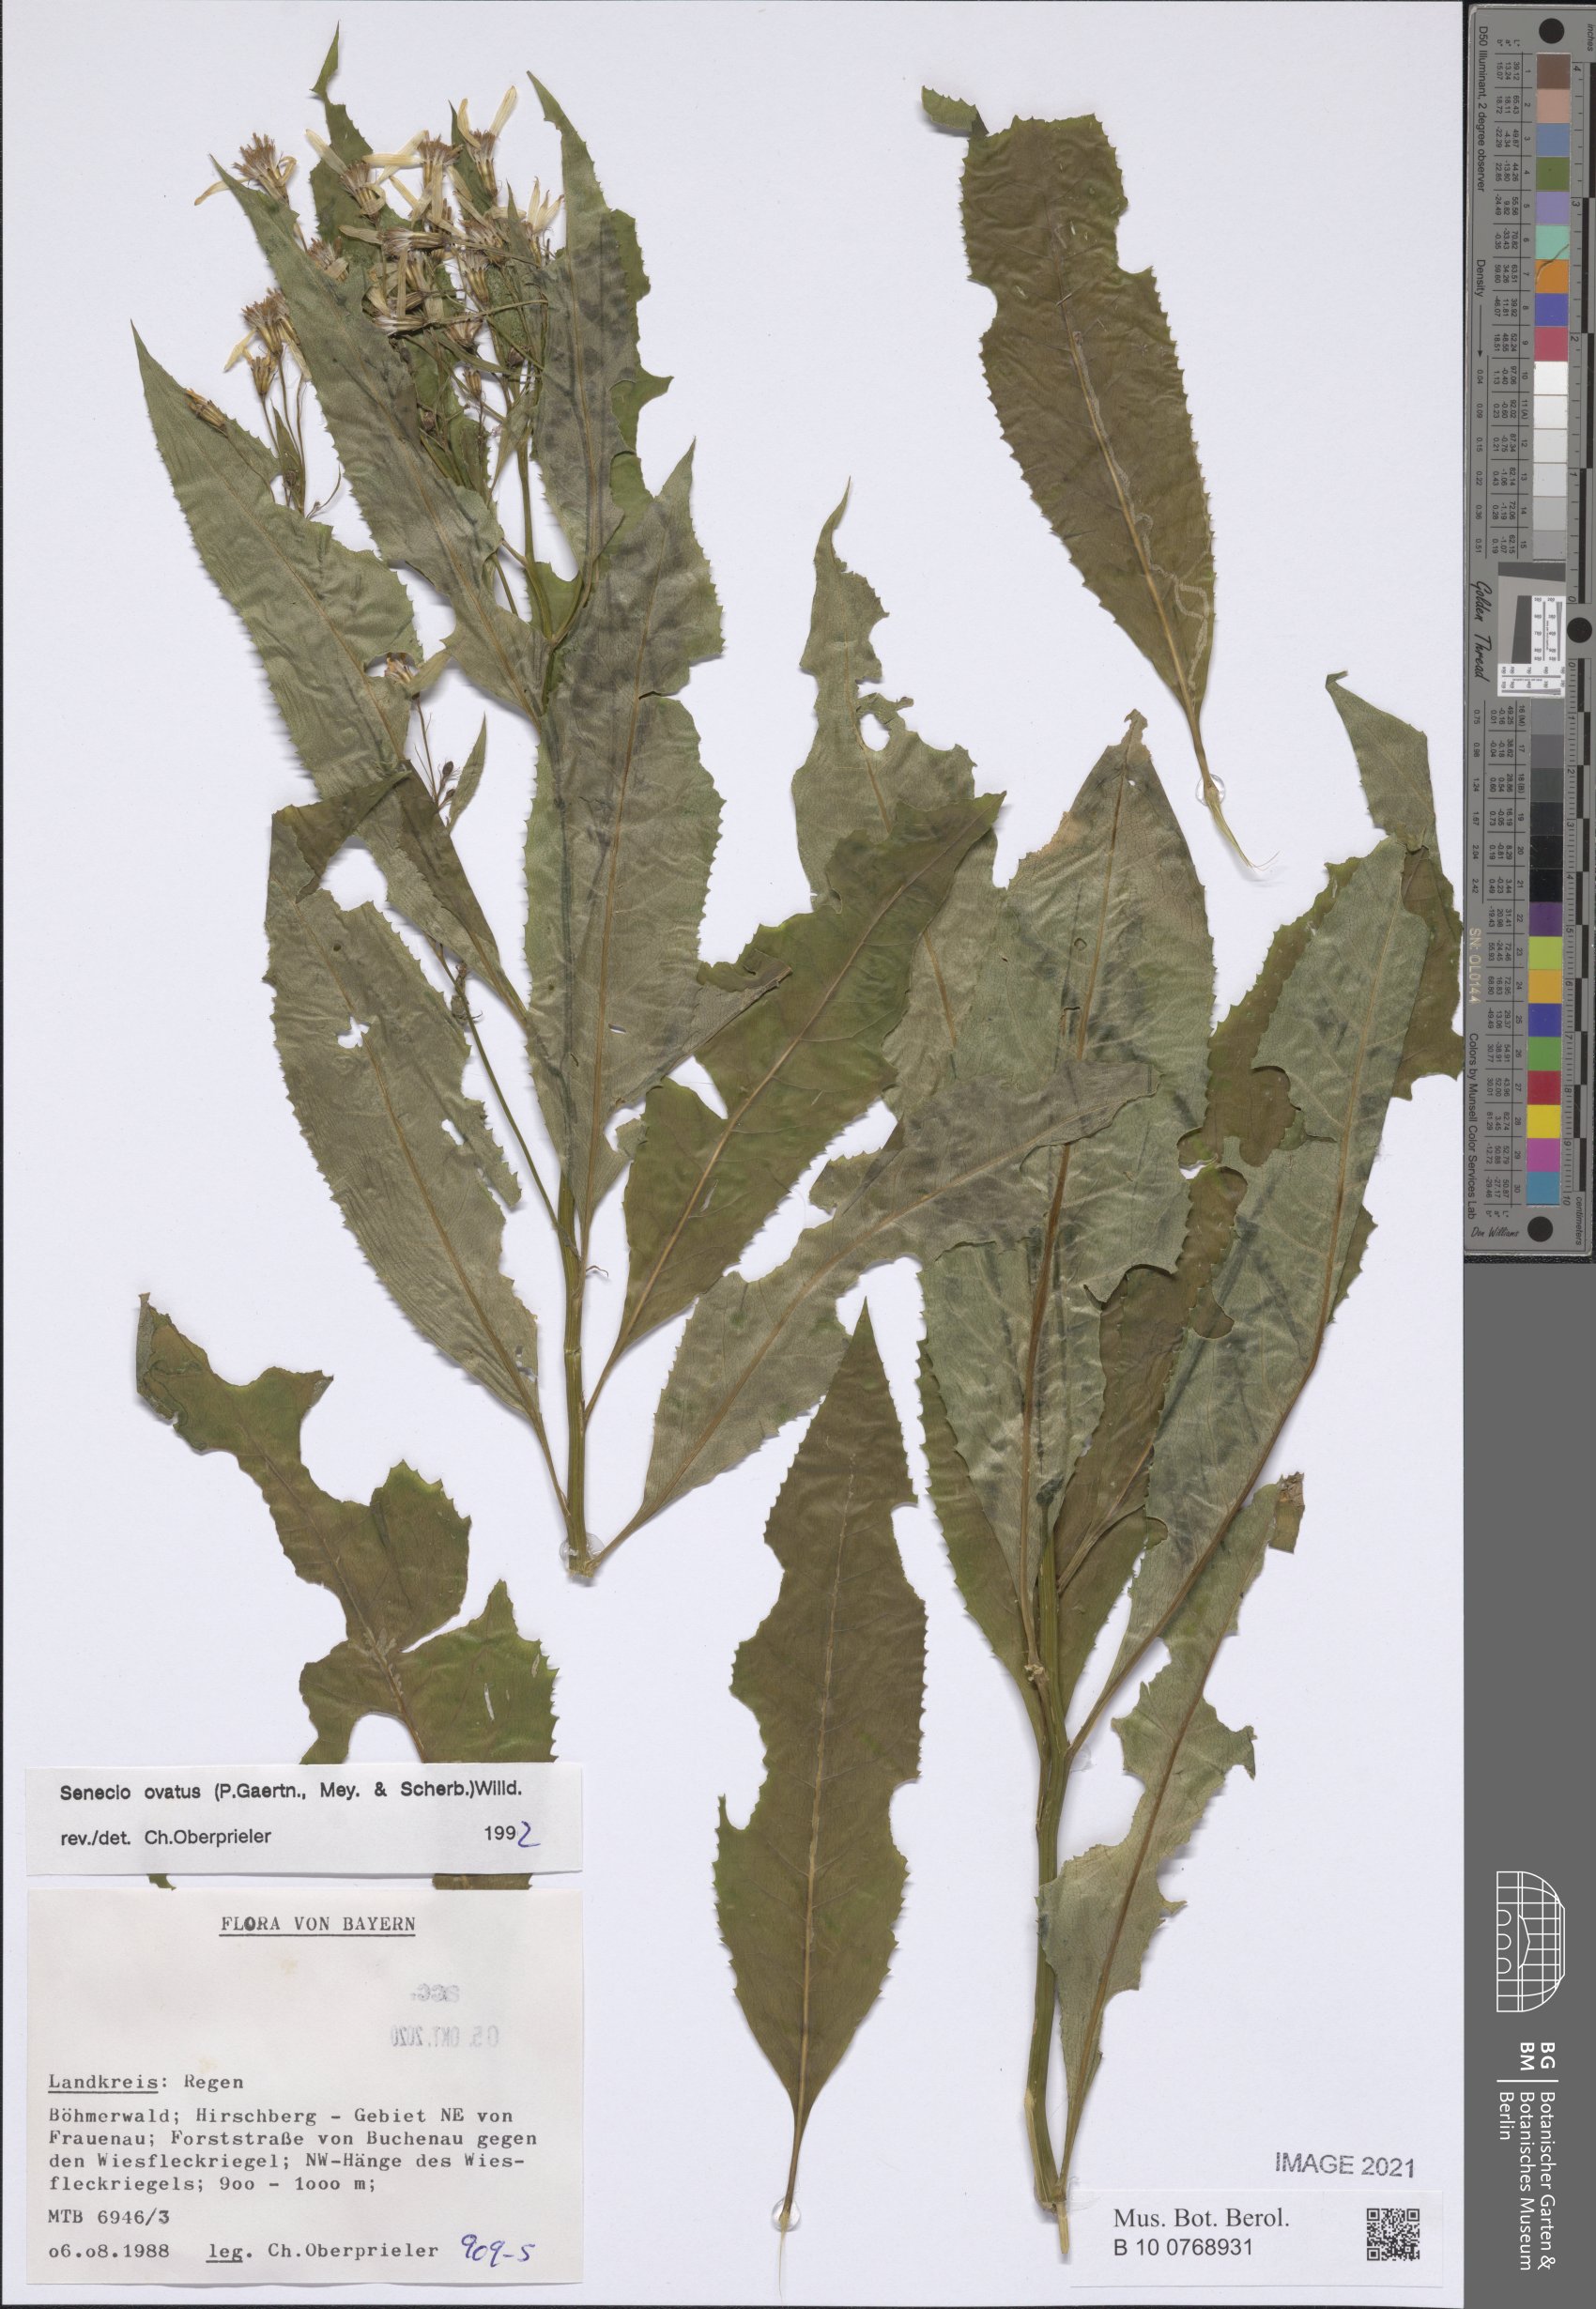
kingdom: Plantae
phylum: Tracheophyta
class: Magnoliopsida
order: Asterales
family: Asteraceae
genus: Senecio
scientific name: Senecio ovatus
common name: Wood ragwort
